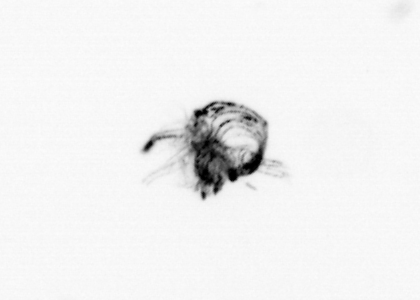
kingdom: Animalia
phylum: Arthropoda
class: Malacostraca
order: Decapoda
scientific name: Decapoda
